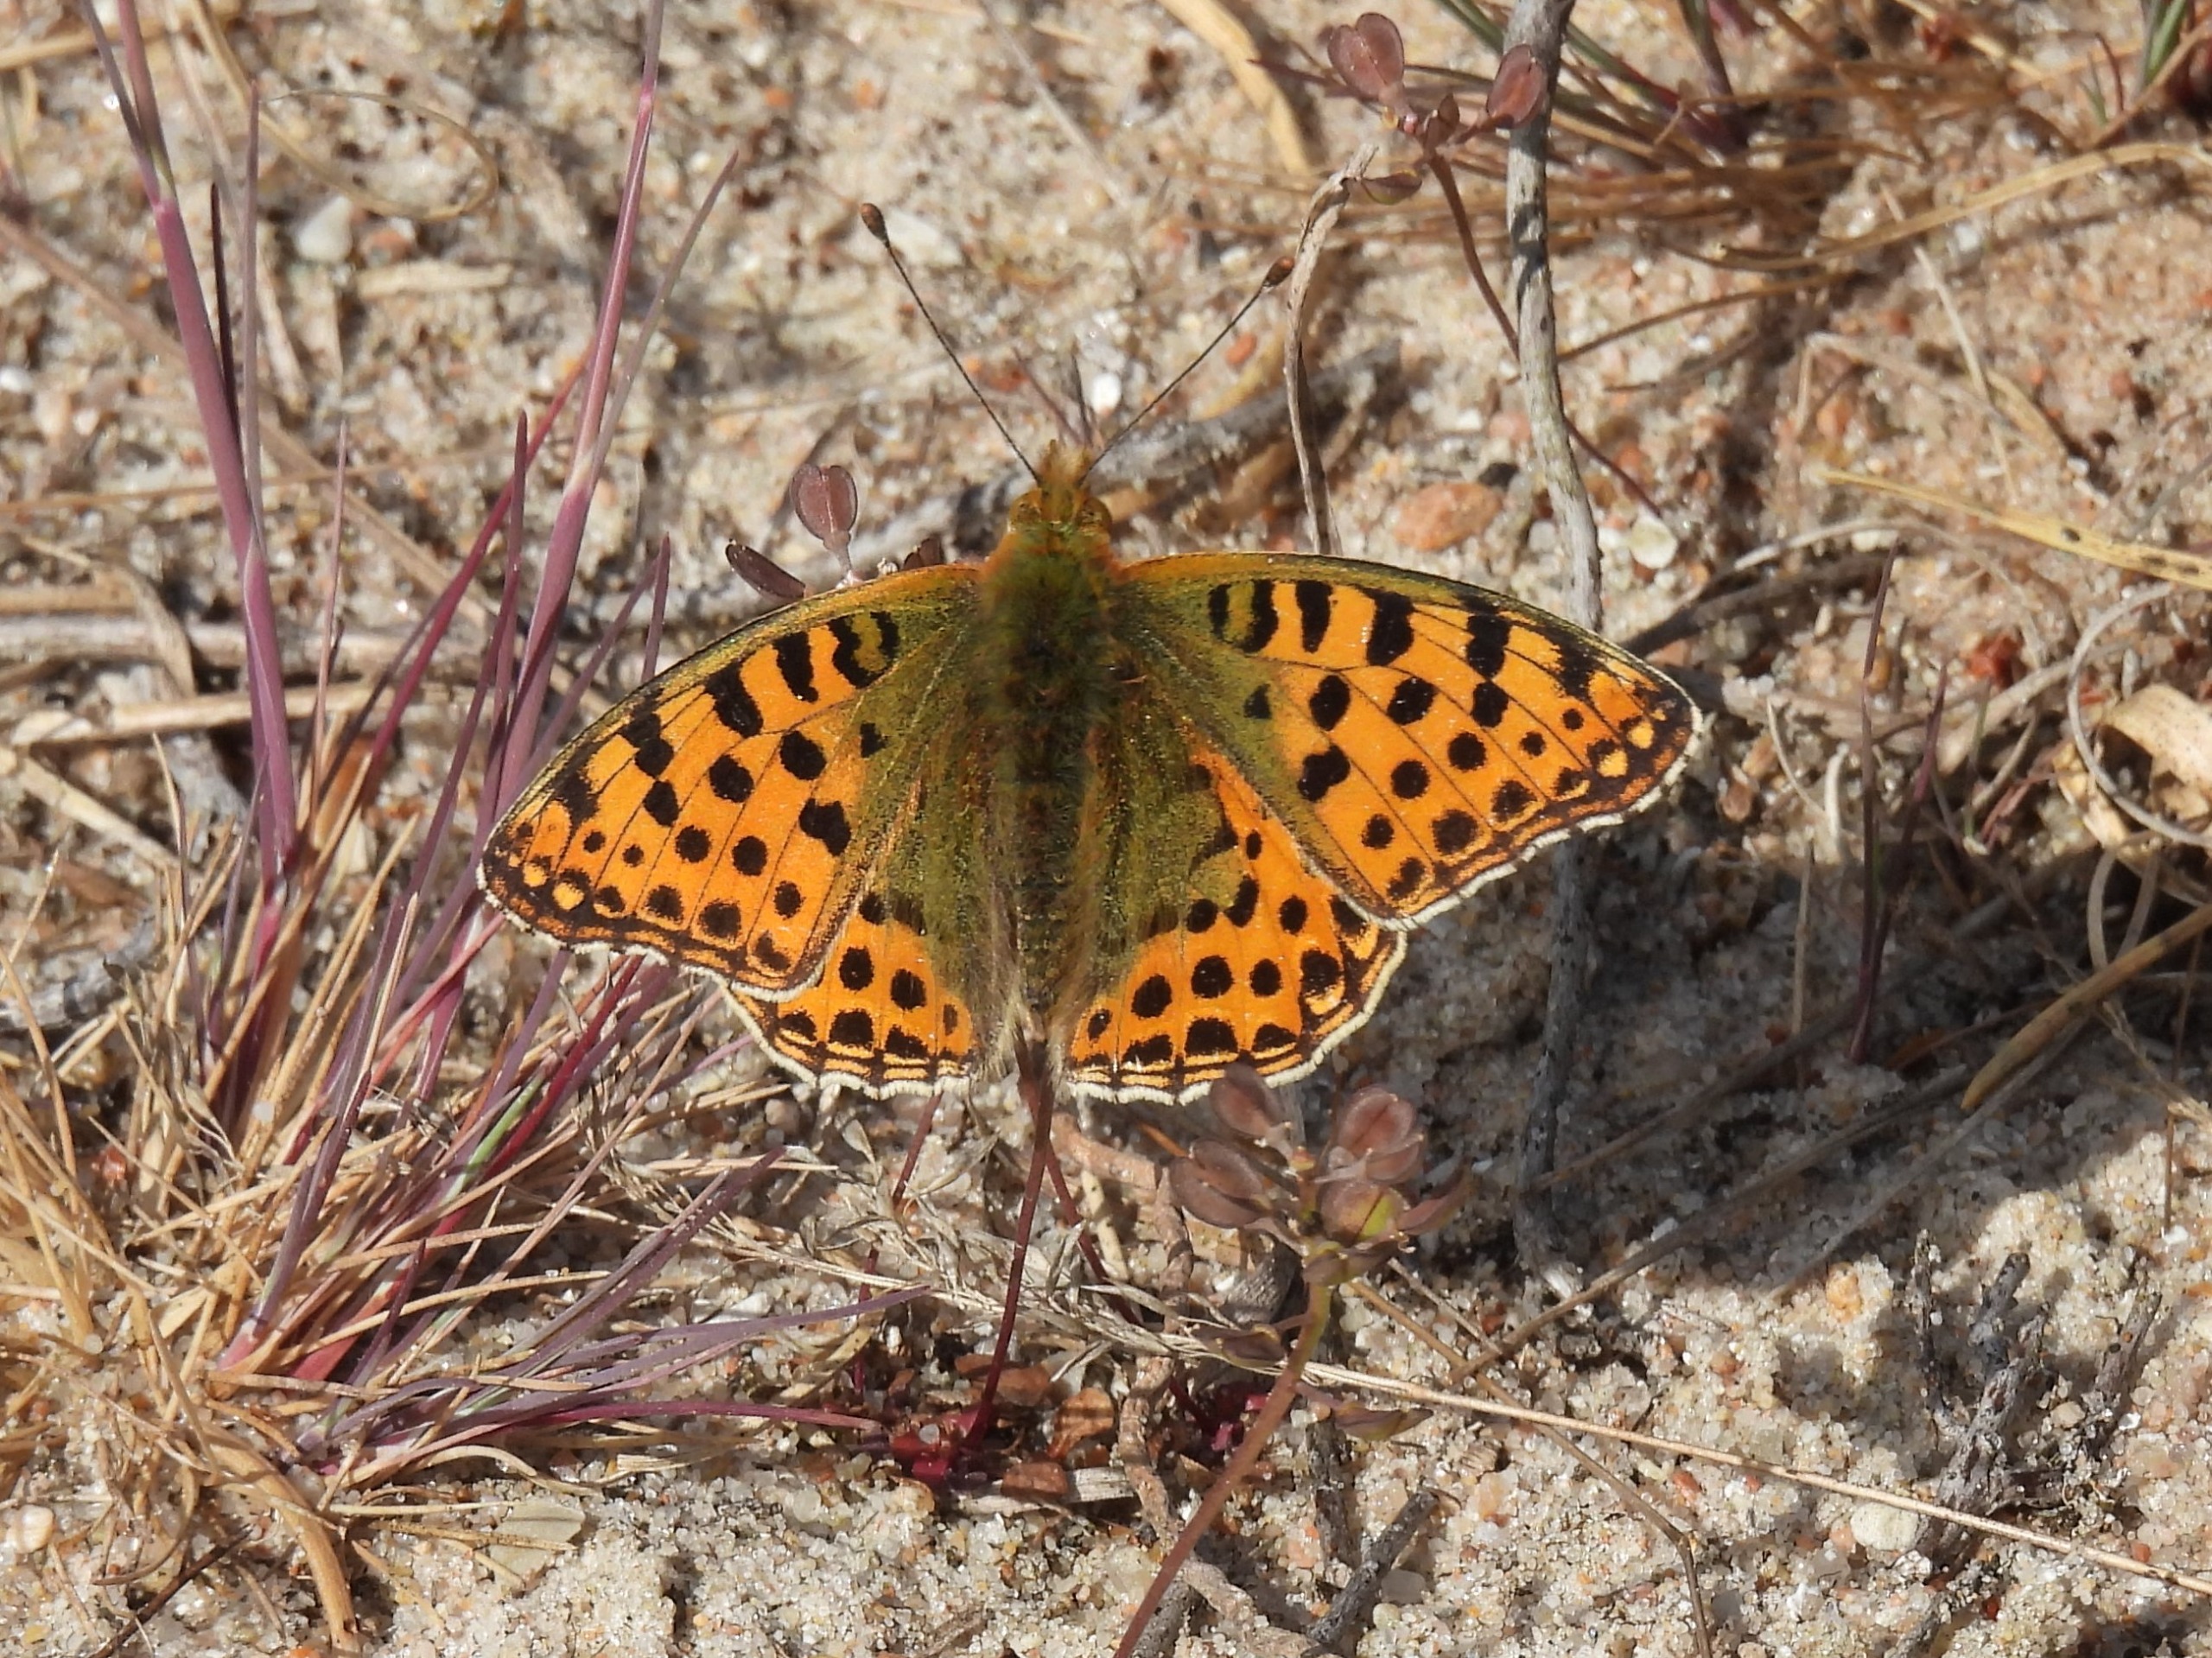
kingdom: Animalia
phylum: Arthropoda
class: Insecta
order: Lepidoptera
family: Nymphalidae
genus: Issoria
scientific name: Issoria lathonia
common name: Storplettet perlemorsommerfugl
